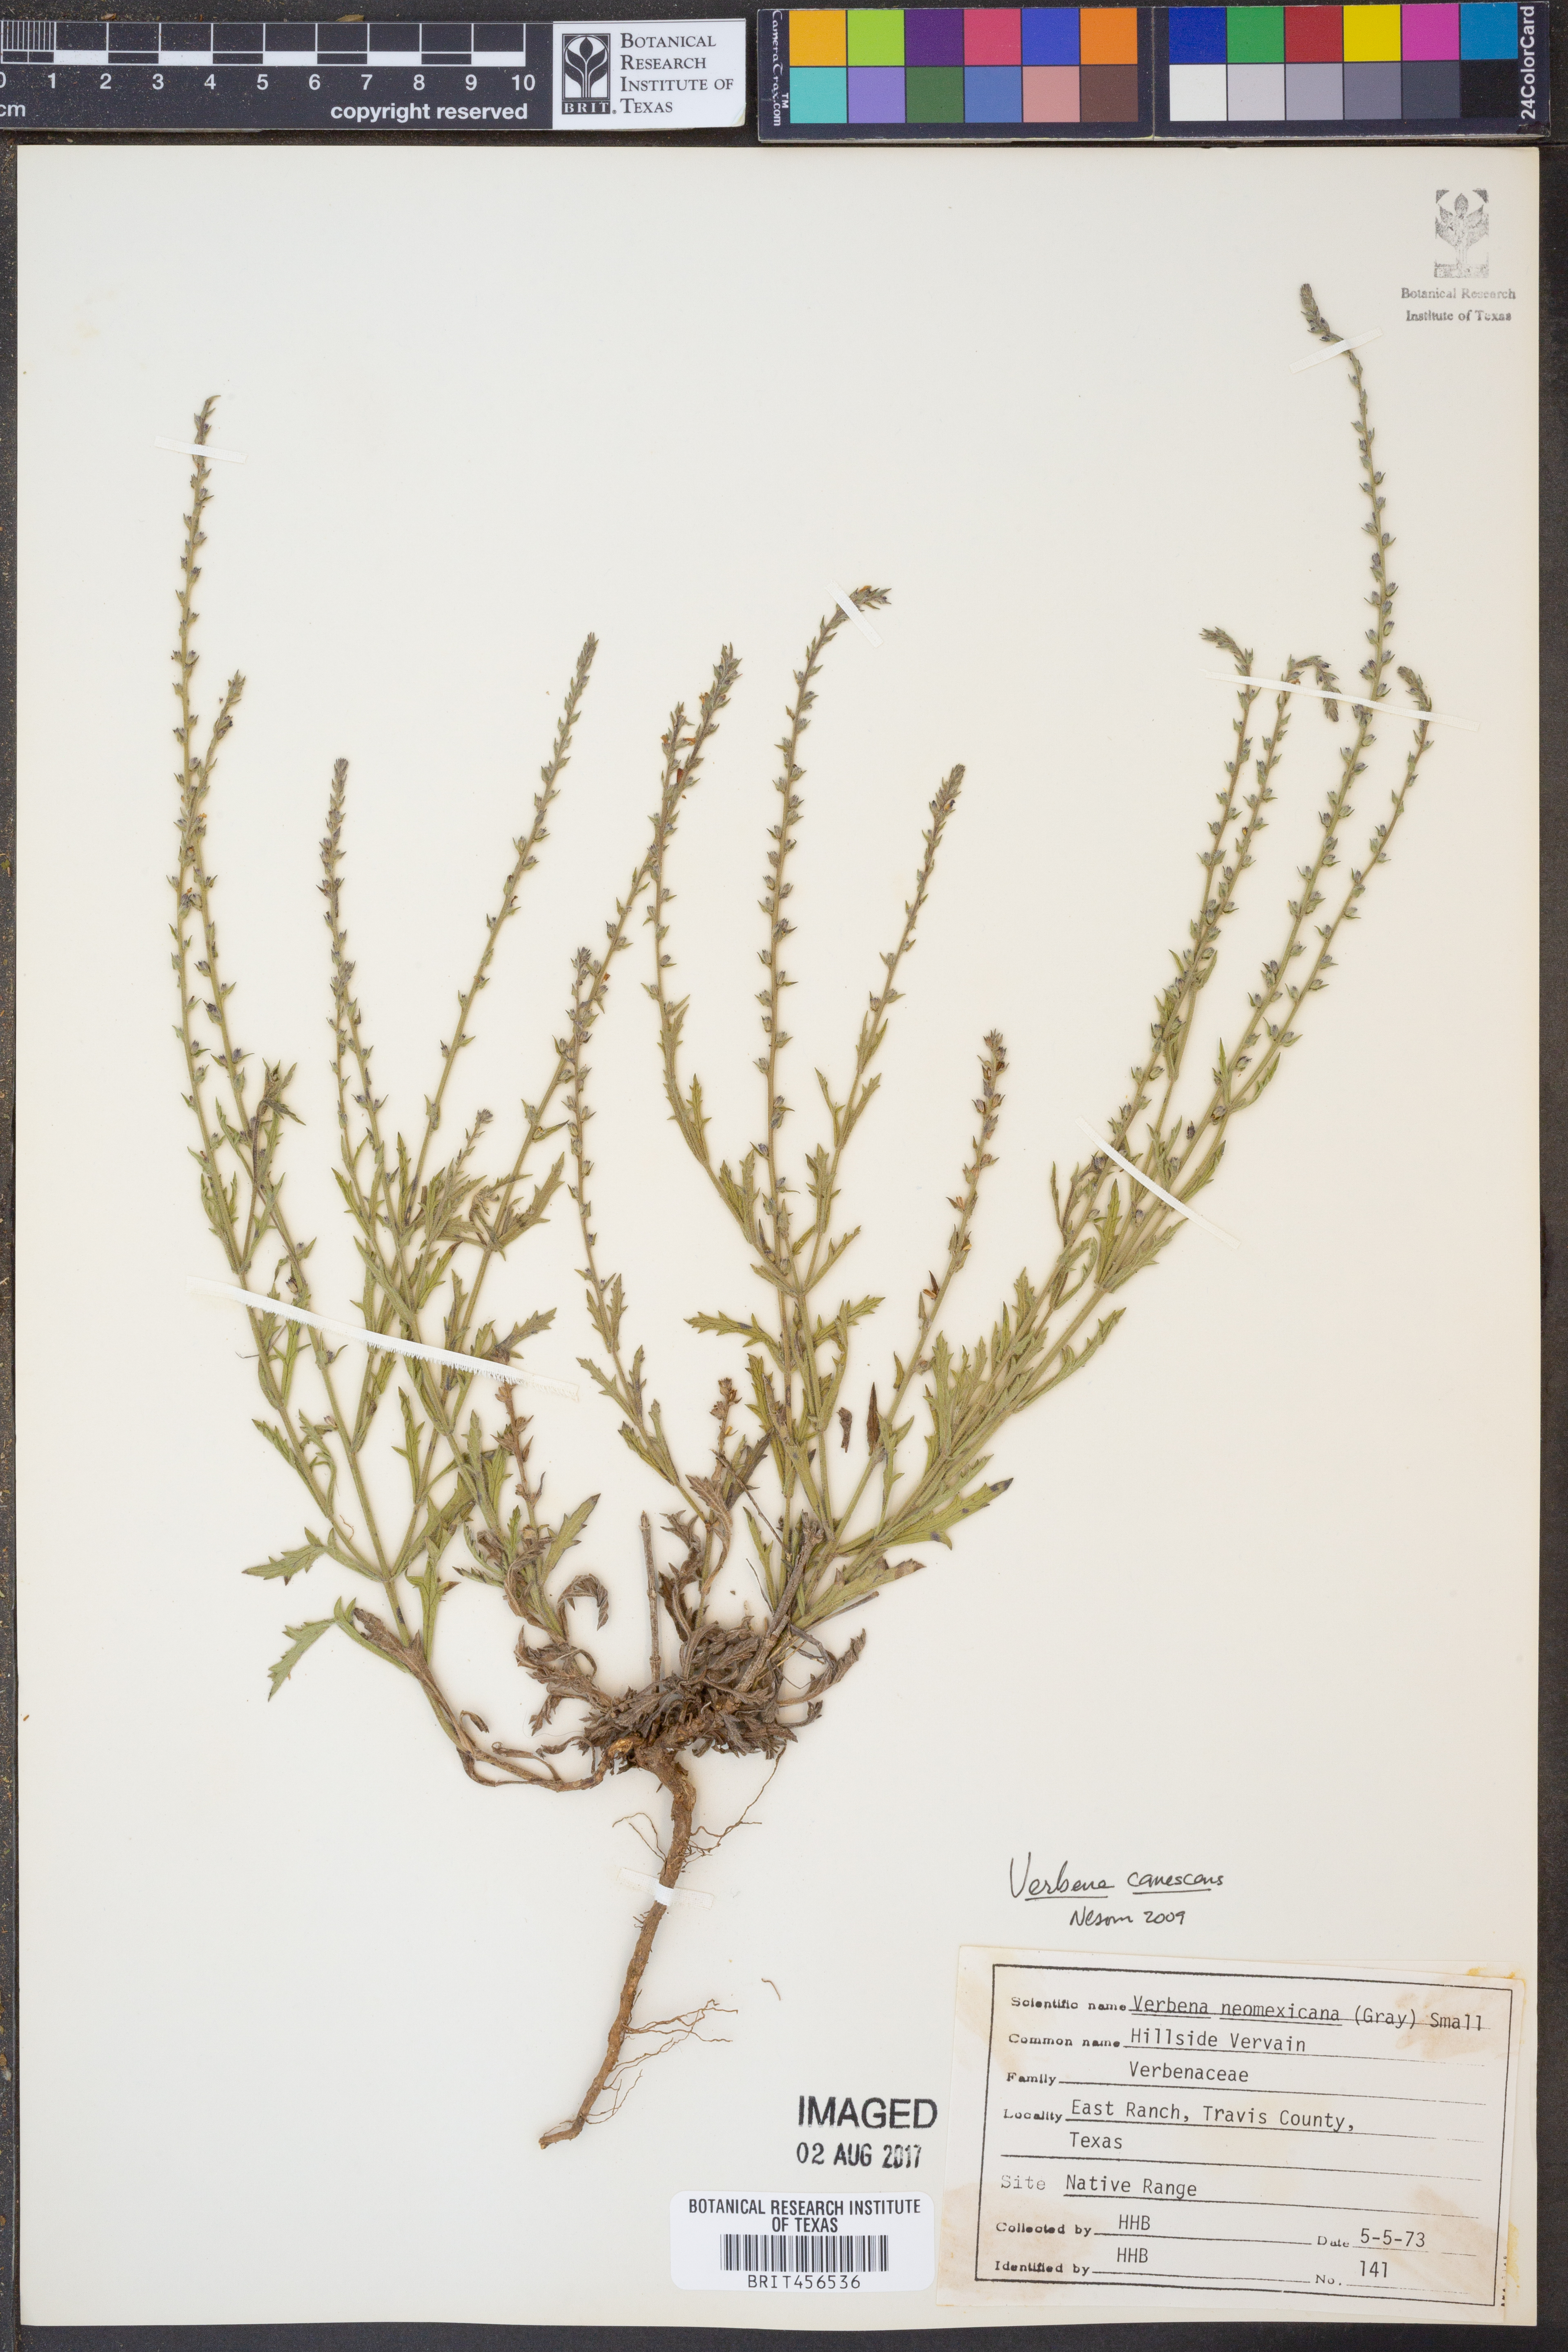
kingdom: Plantae
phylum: Tracheophyta
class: Magnoliopsida
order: Lamiales
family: Verbenaceae
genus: Verbena
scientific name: Verbena canescens
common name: Gray vervain
